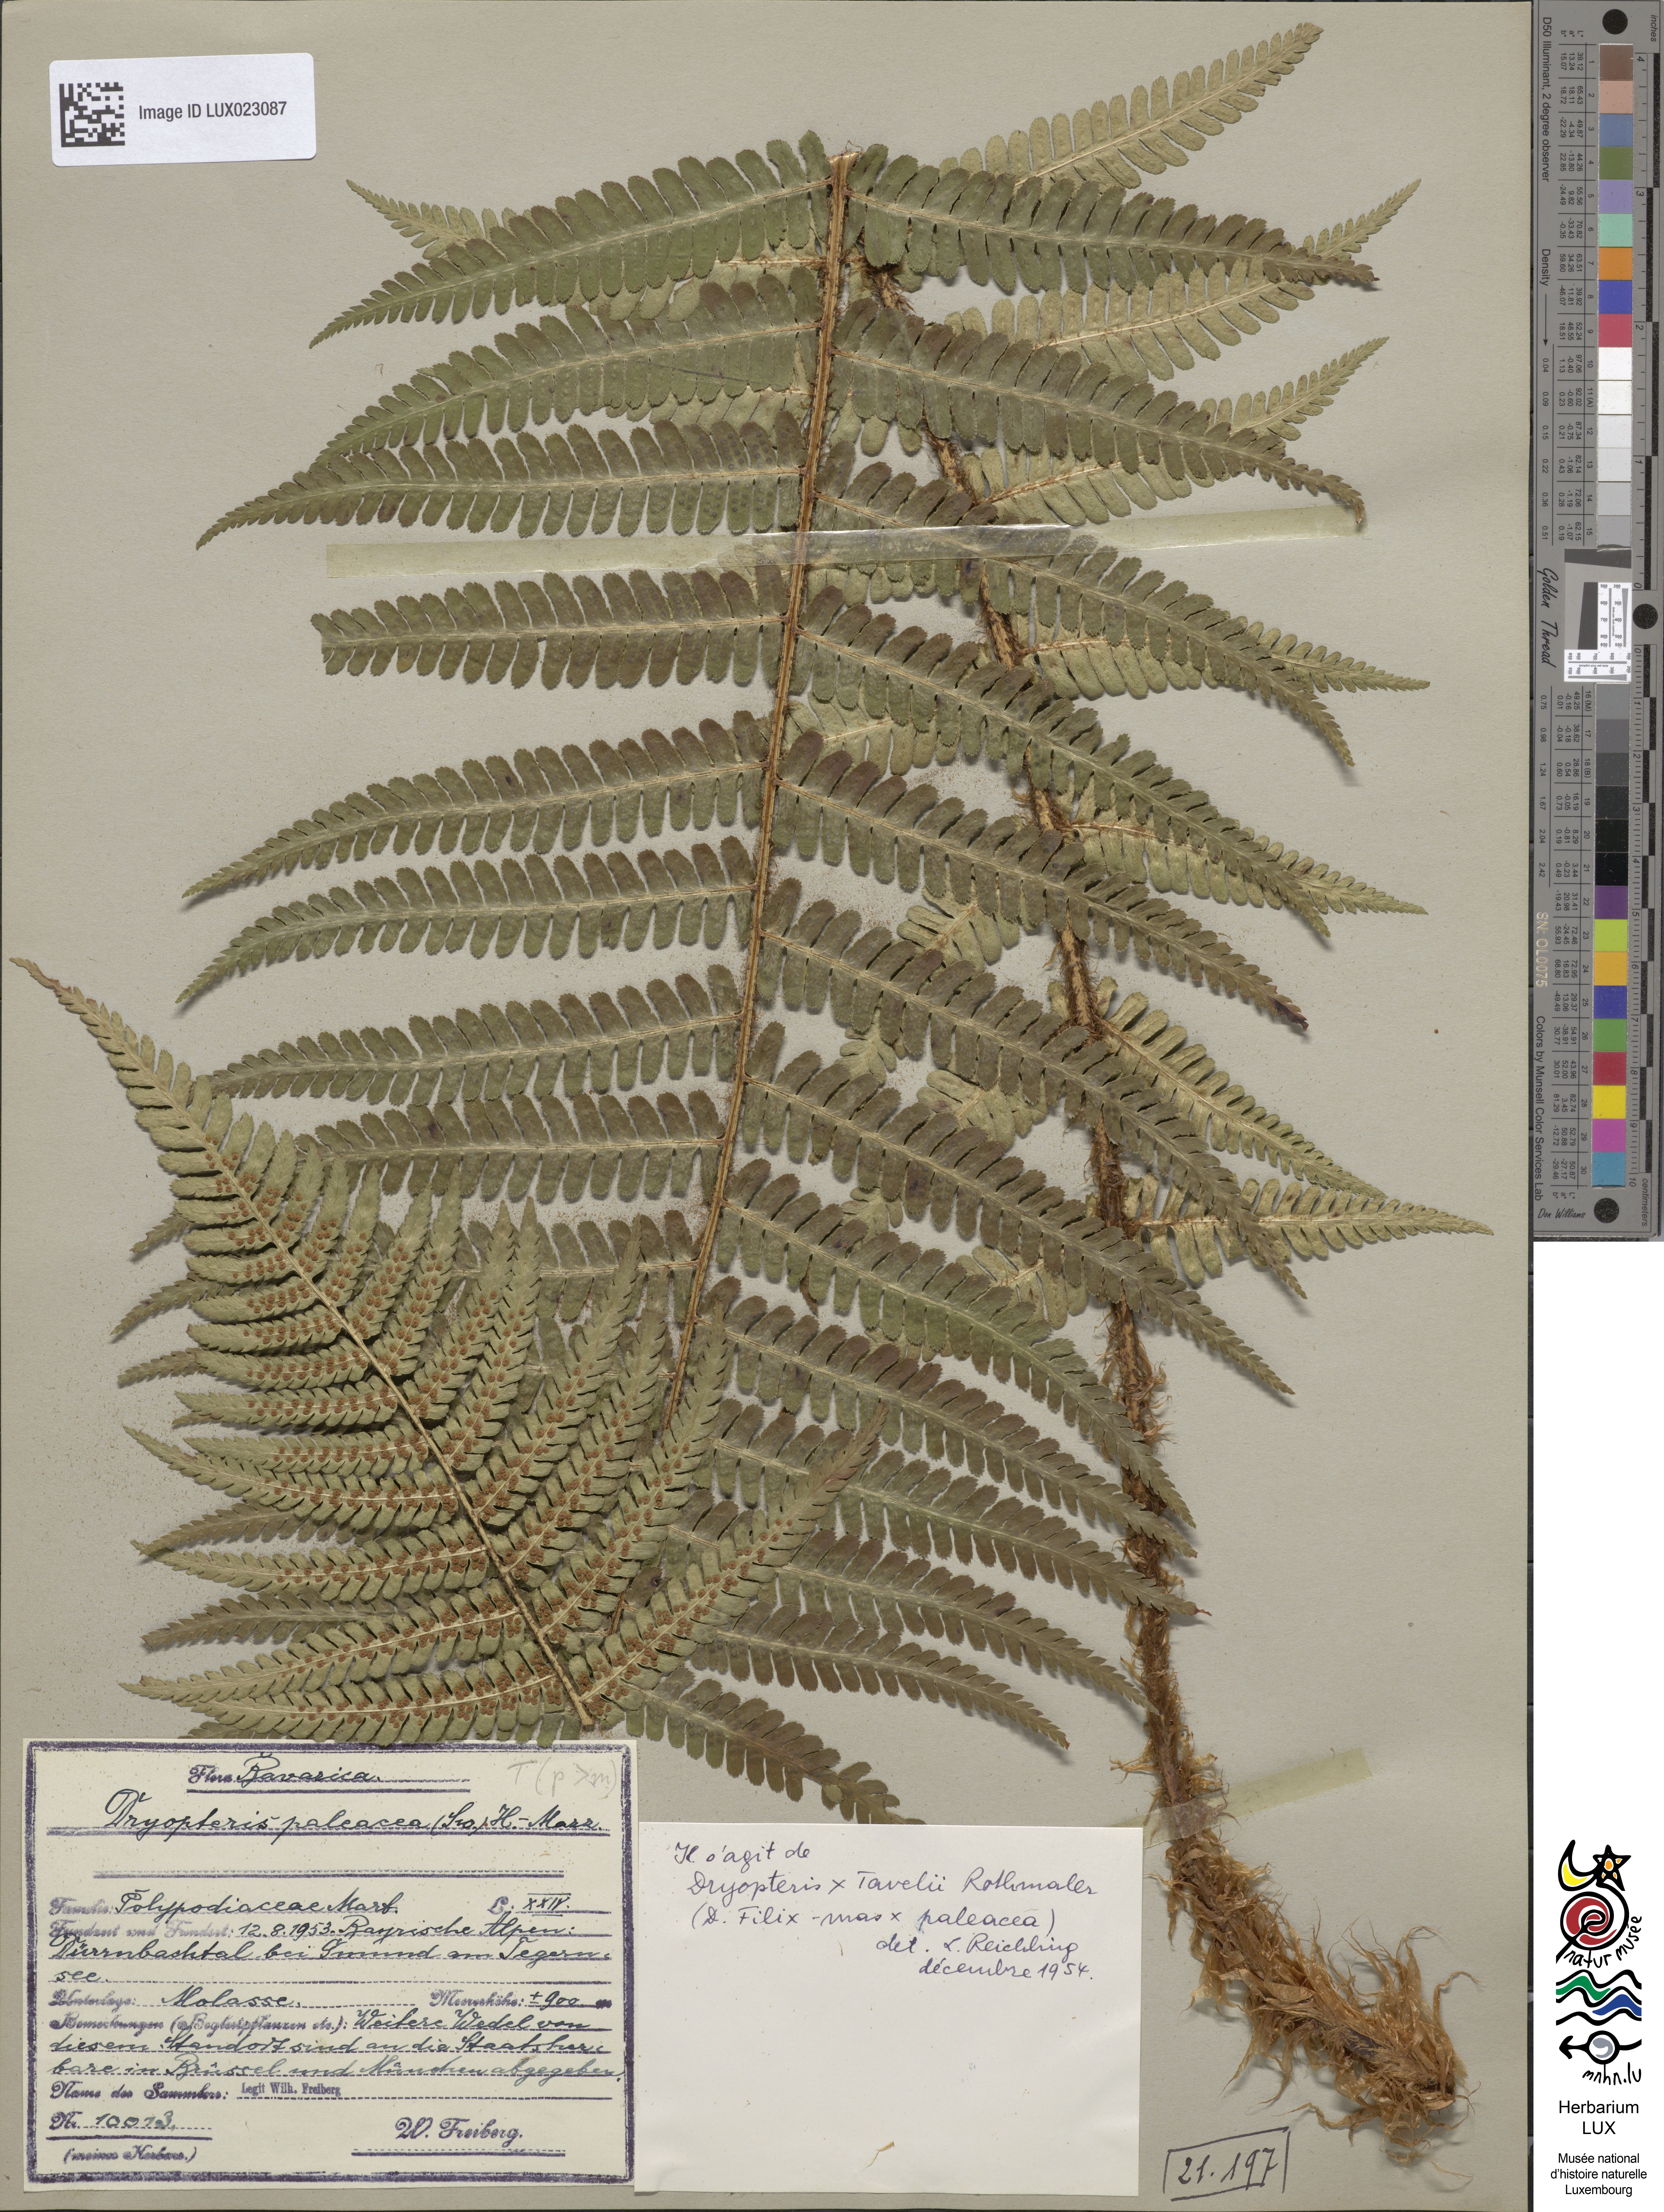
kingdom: Plantae
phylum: Tracheophyta
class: Polypodiopsida
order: Polypodiales
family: Dryopteridaceae
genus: Dryopteris
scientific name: Dryopteris borreri
